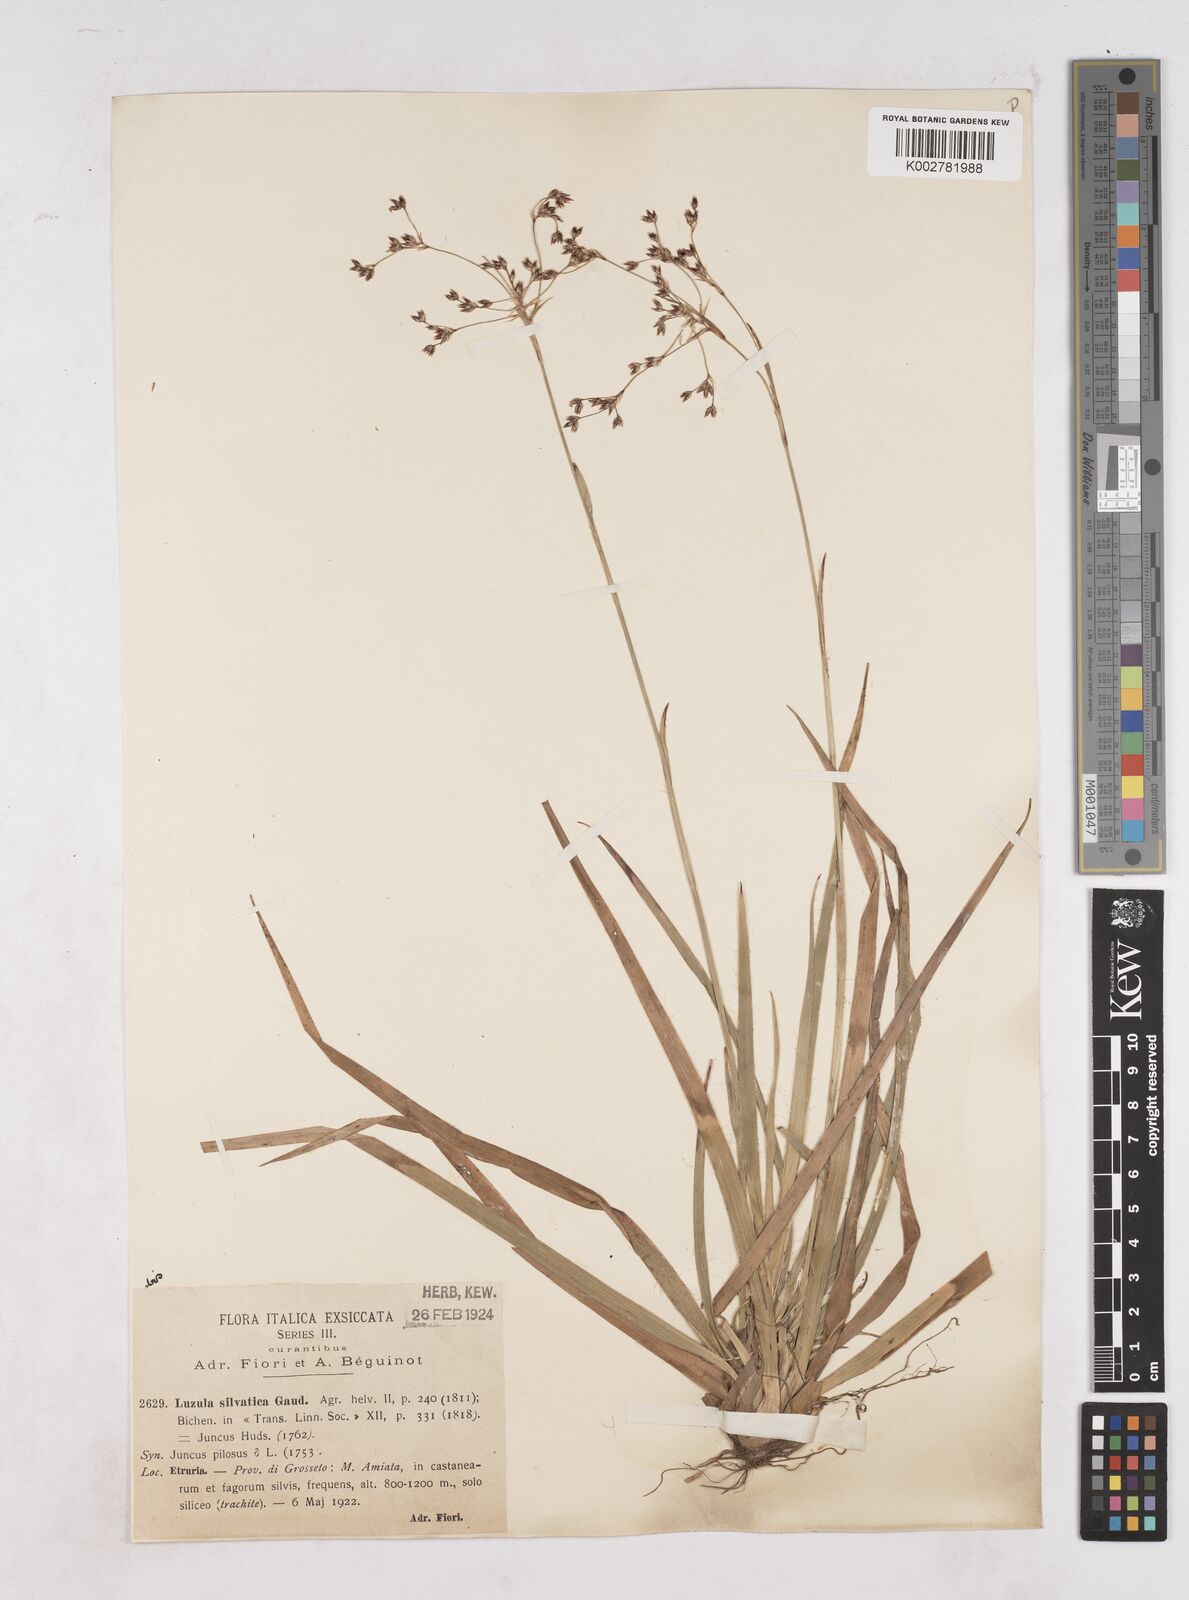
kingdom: Plantae
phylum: Tracheophyta
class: Liliopsida
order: Poales
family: Juncaceae
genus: Luzula
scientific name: Luzula sylvatica
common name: Great wood-rush
